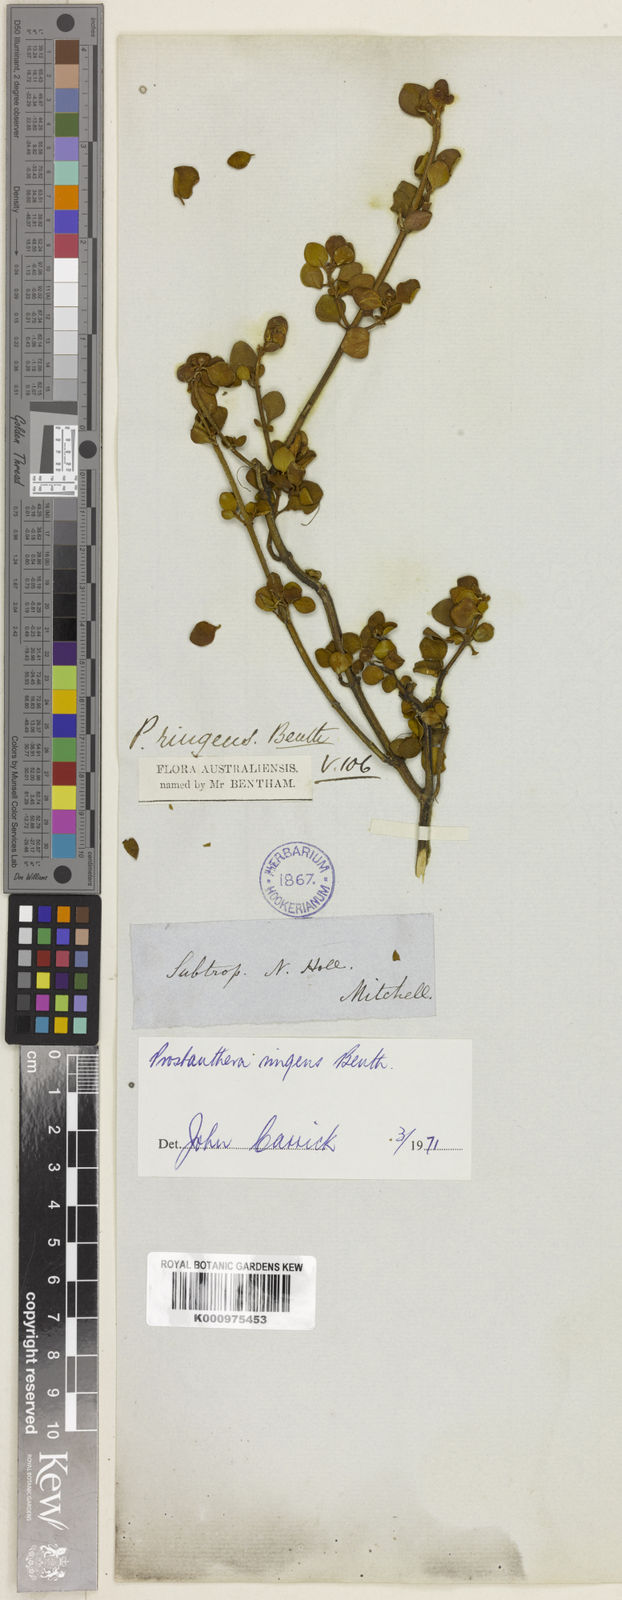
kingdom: Plantae
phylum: Tracheophyta
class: Magnoliopsida
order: Lamiales
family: Lamiaceae
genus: Prostanthera
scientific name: Prostanthera ringens
